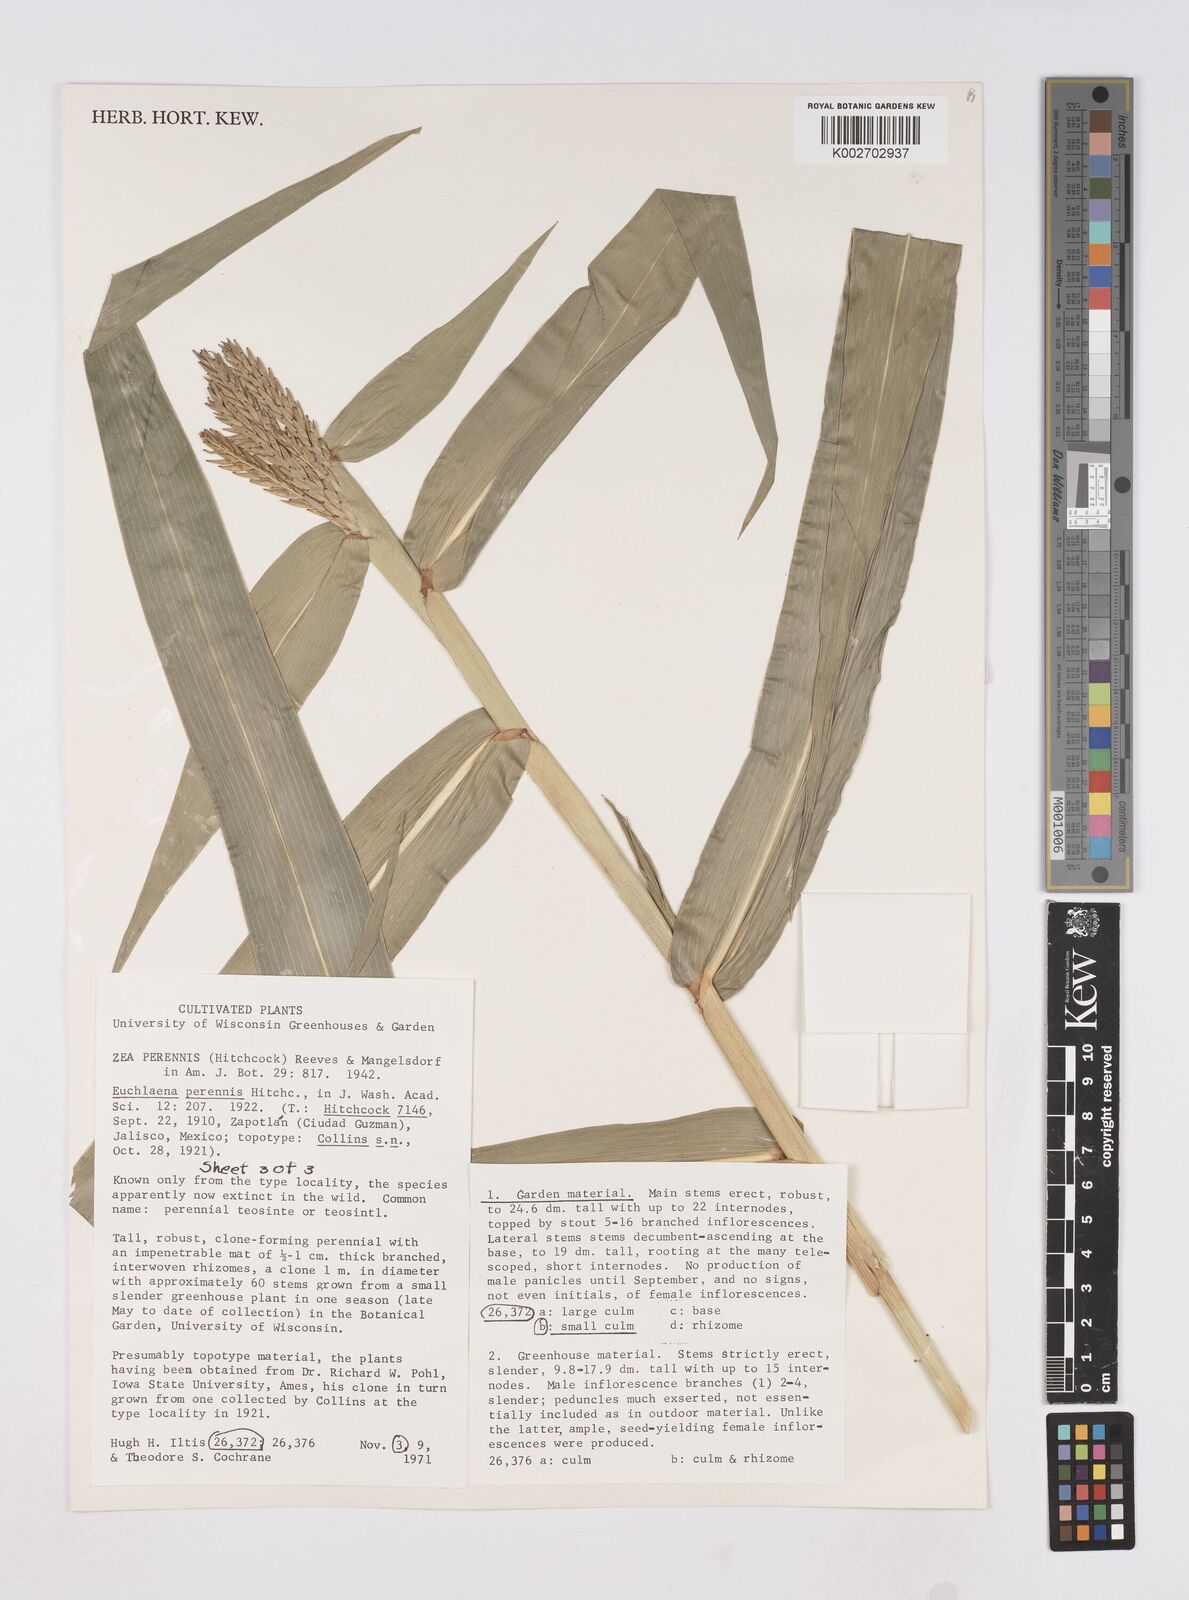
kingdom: Plantae
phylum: Tracheophyta
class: Liliopsida
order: Poales
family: Poaceae
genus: Zea
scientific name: Zea perennis
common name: Perennial teosinte
